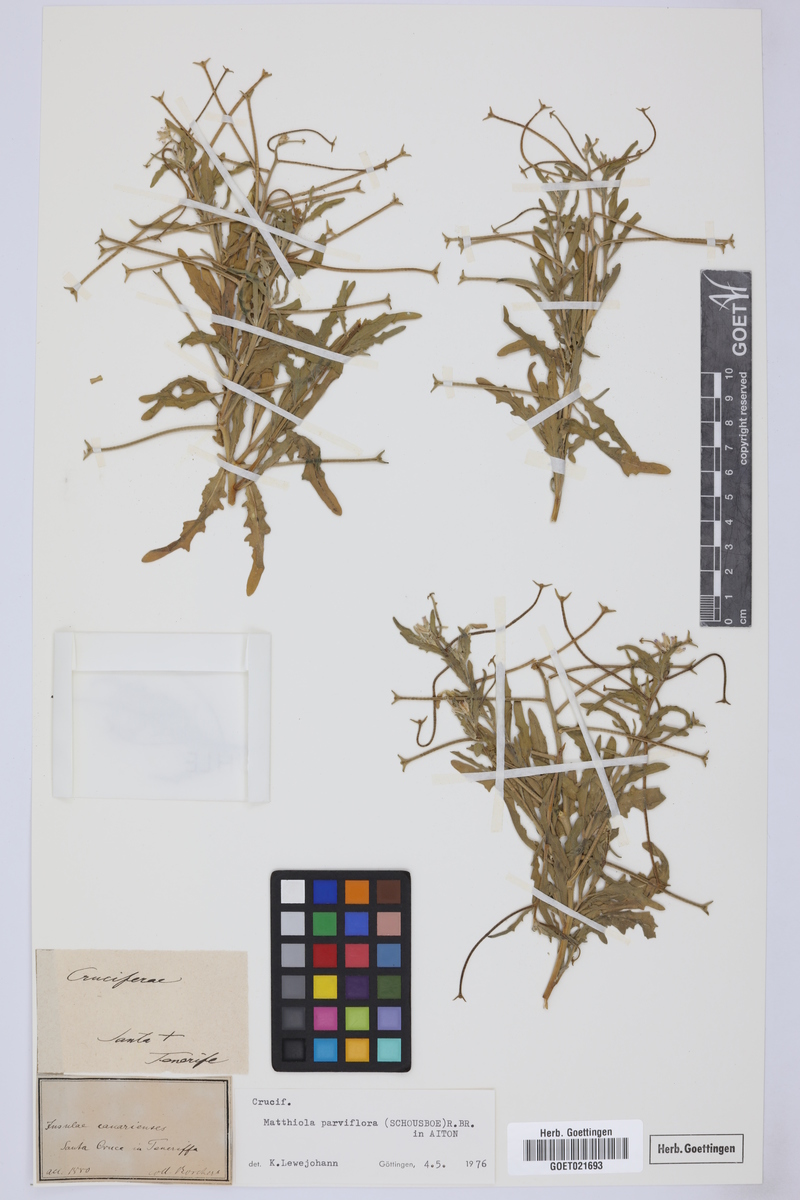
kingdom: Plantae
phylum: Tracheophyta
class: Magnoliopsida
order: Brassicales
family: Brassicaceae
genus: Matthiola
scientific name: Matthiola parviflora
